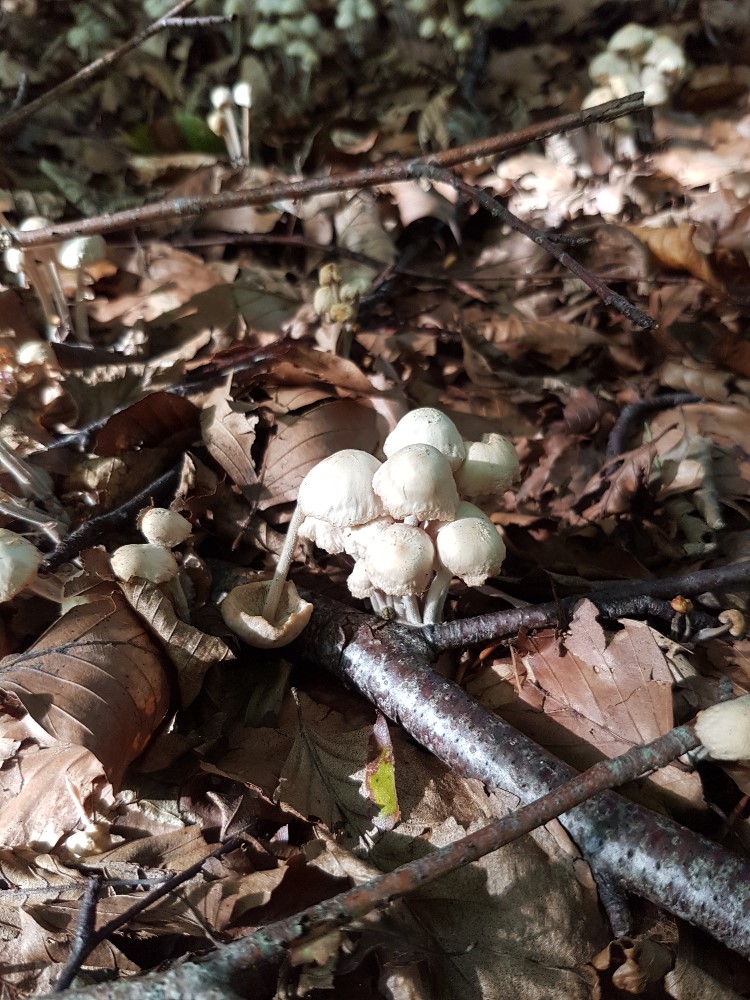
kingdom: Fungi
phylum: Basidiomycota
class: Agaricomycetes
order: Agaricales
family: Omphalotaceae
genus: Collybiopsis
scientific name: Collybiopsis confluens
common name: knippe-fladhat
